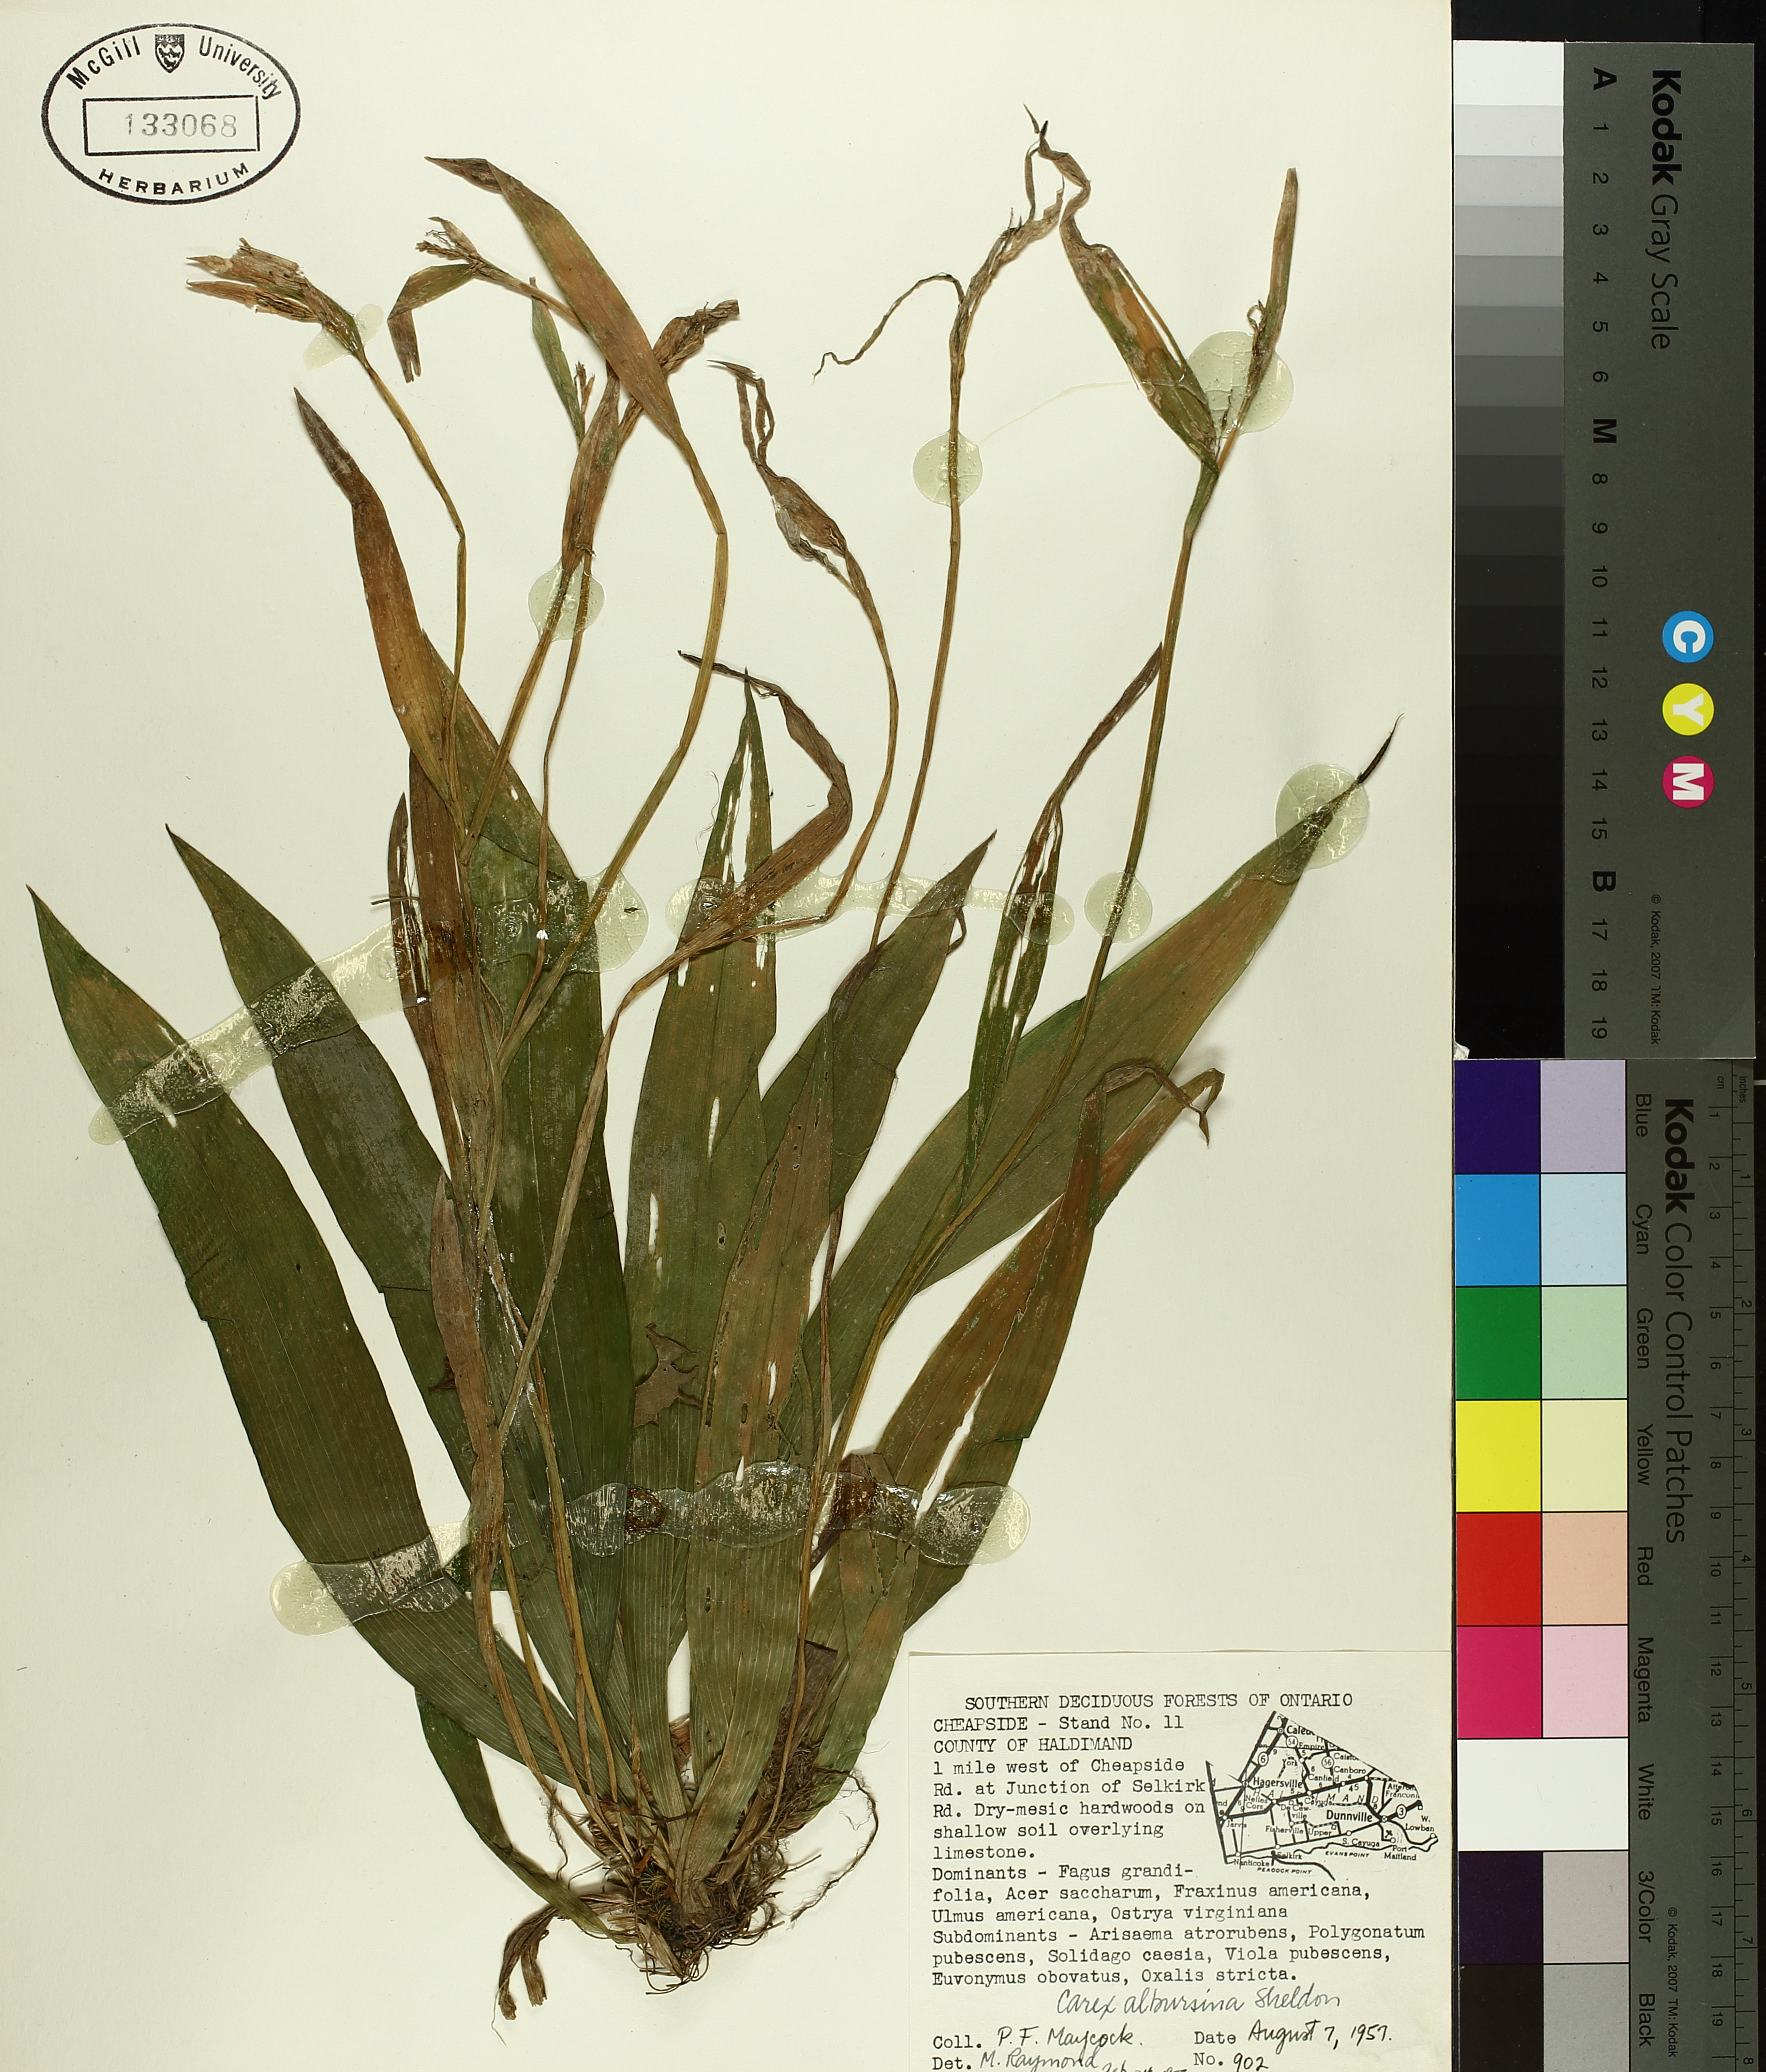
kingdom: Plantae
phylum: Tracheophyta
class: Liliopsida
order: Poales
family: Cyperaceae
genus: Carex
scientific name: Carex albursina
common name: Blunt-scale wood sedge
